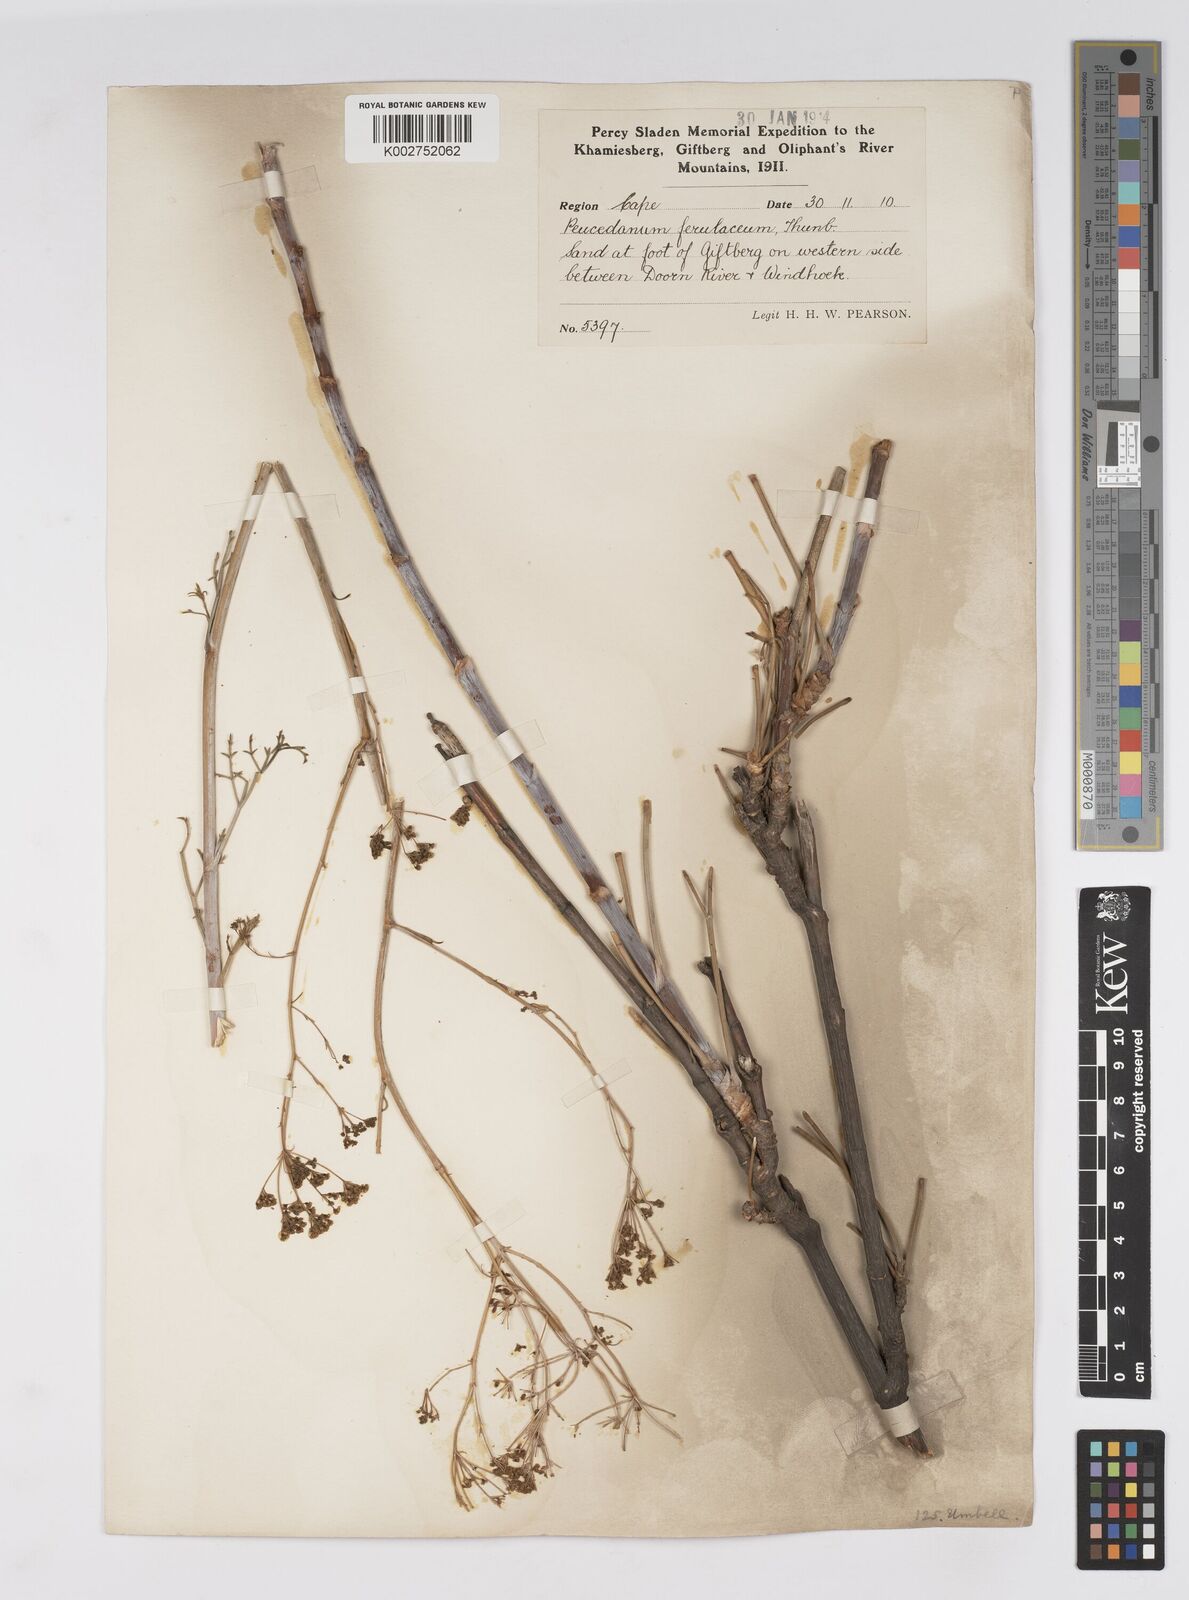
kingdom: Plantae
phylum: Tracheophyta
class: Magnoliopsida
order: Apiales
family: Apiaceae
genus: Anginon
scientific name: Anginon paniculatum
